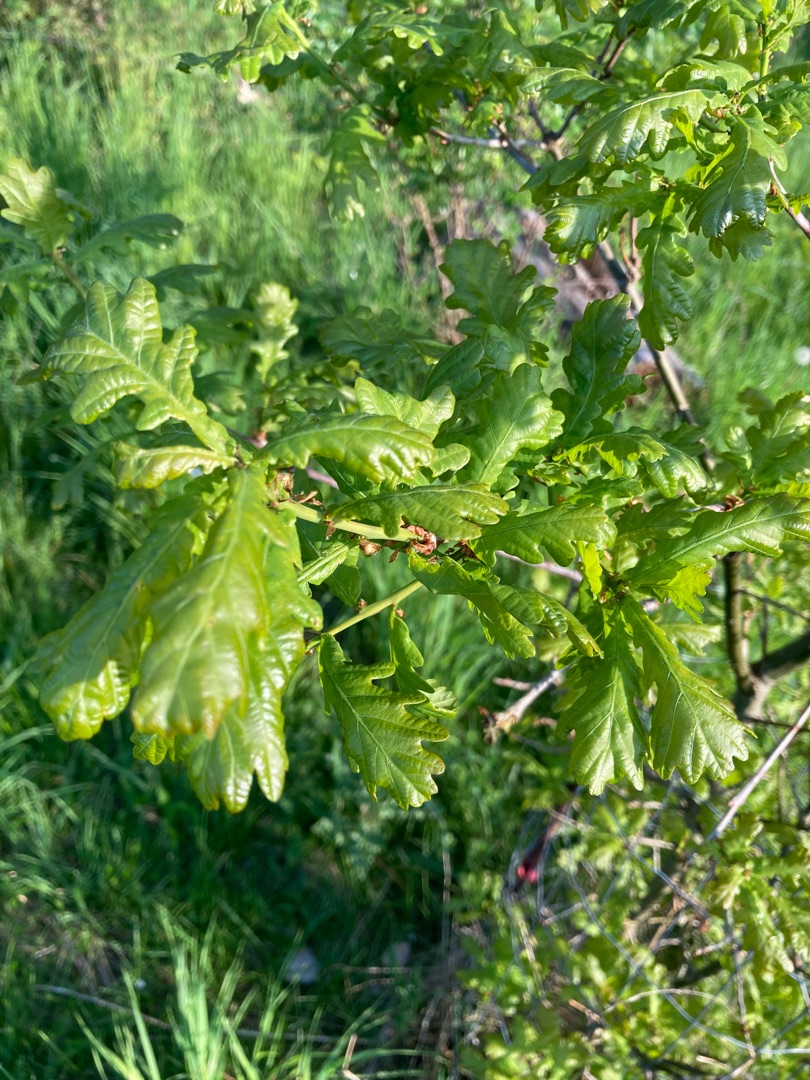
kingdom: Plantae
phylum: Tracheophyta
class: Magnoliopsida
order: Fagales
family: Fagaceae
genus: Quercus
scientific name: Quercus robur
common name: Stilk-eg/almindelig eg
